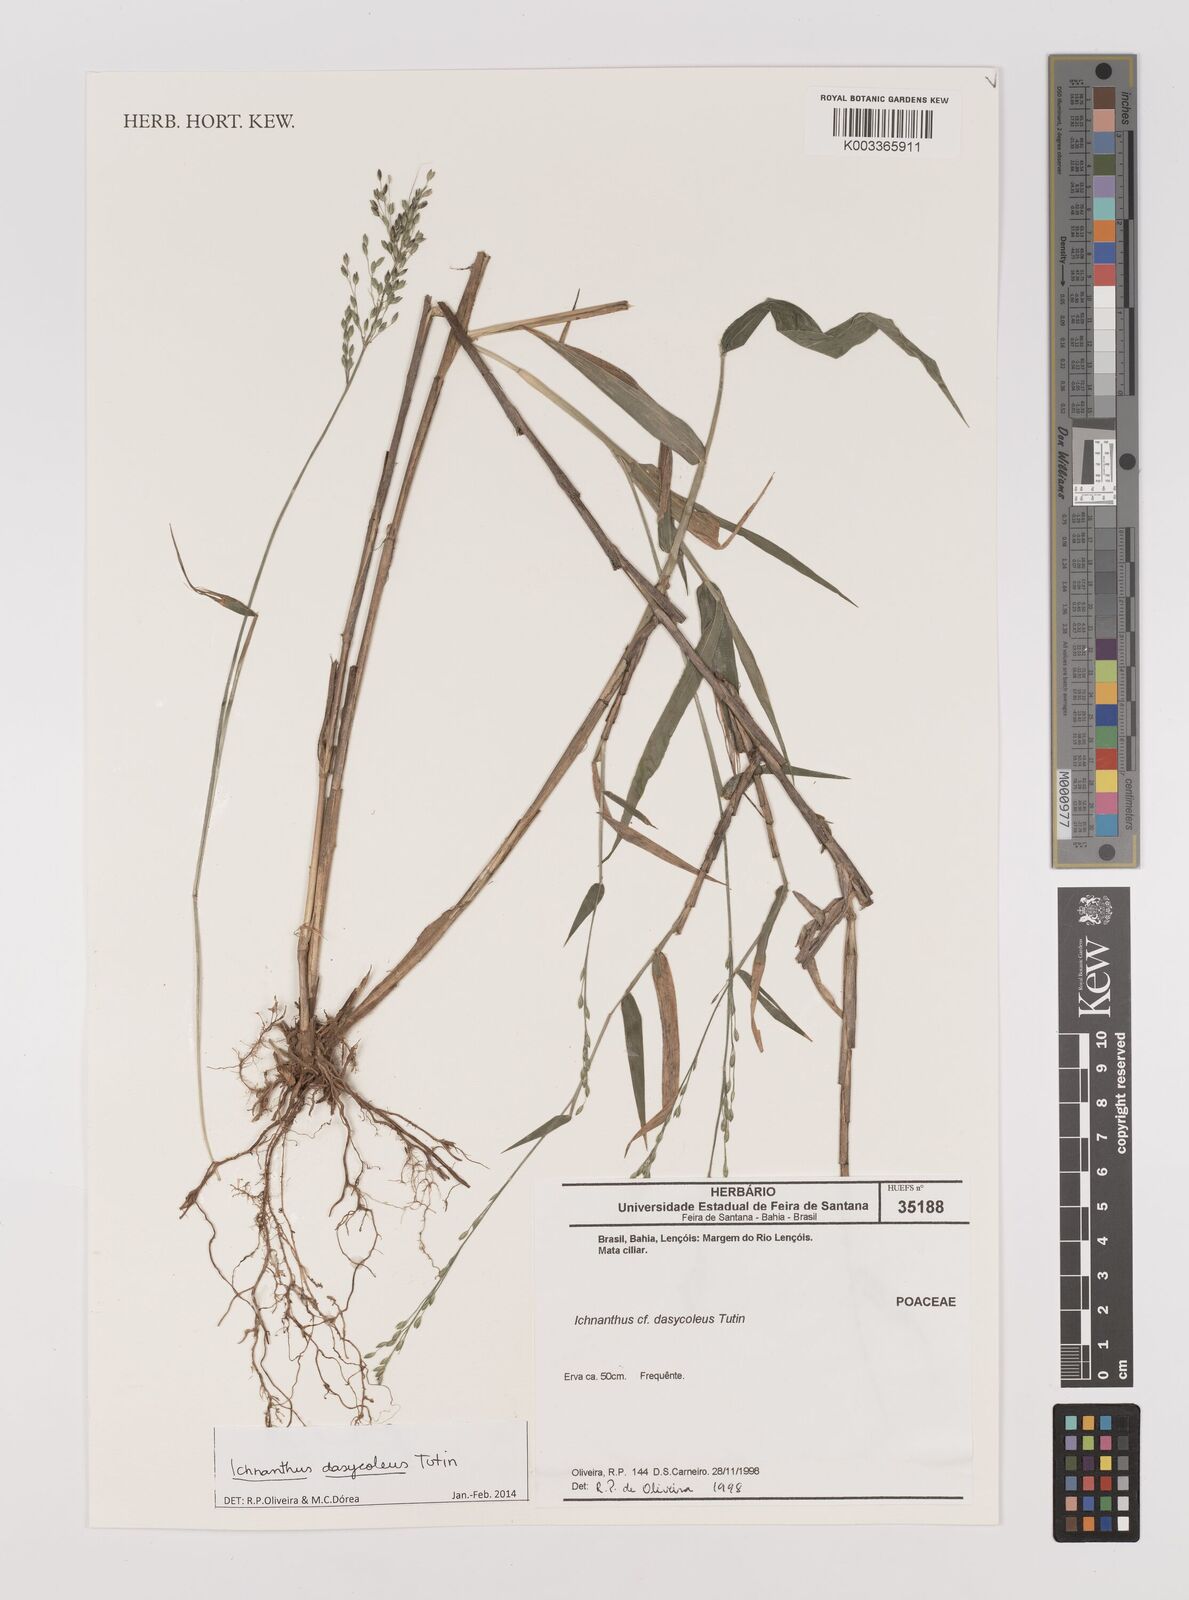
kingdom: Plantae
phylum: Tracheophyta
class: Liliopsida
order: Poales
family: Poaceae
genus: Ichnanthus
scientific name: Ichnanthus dasycoleus
